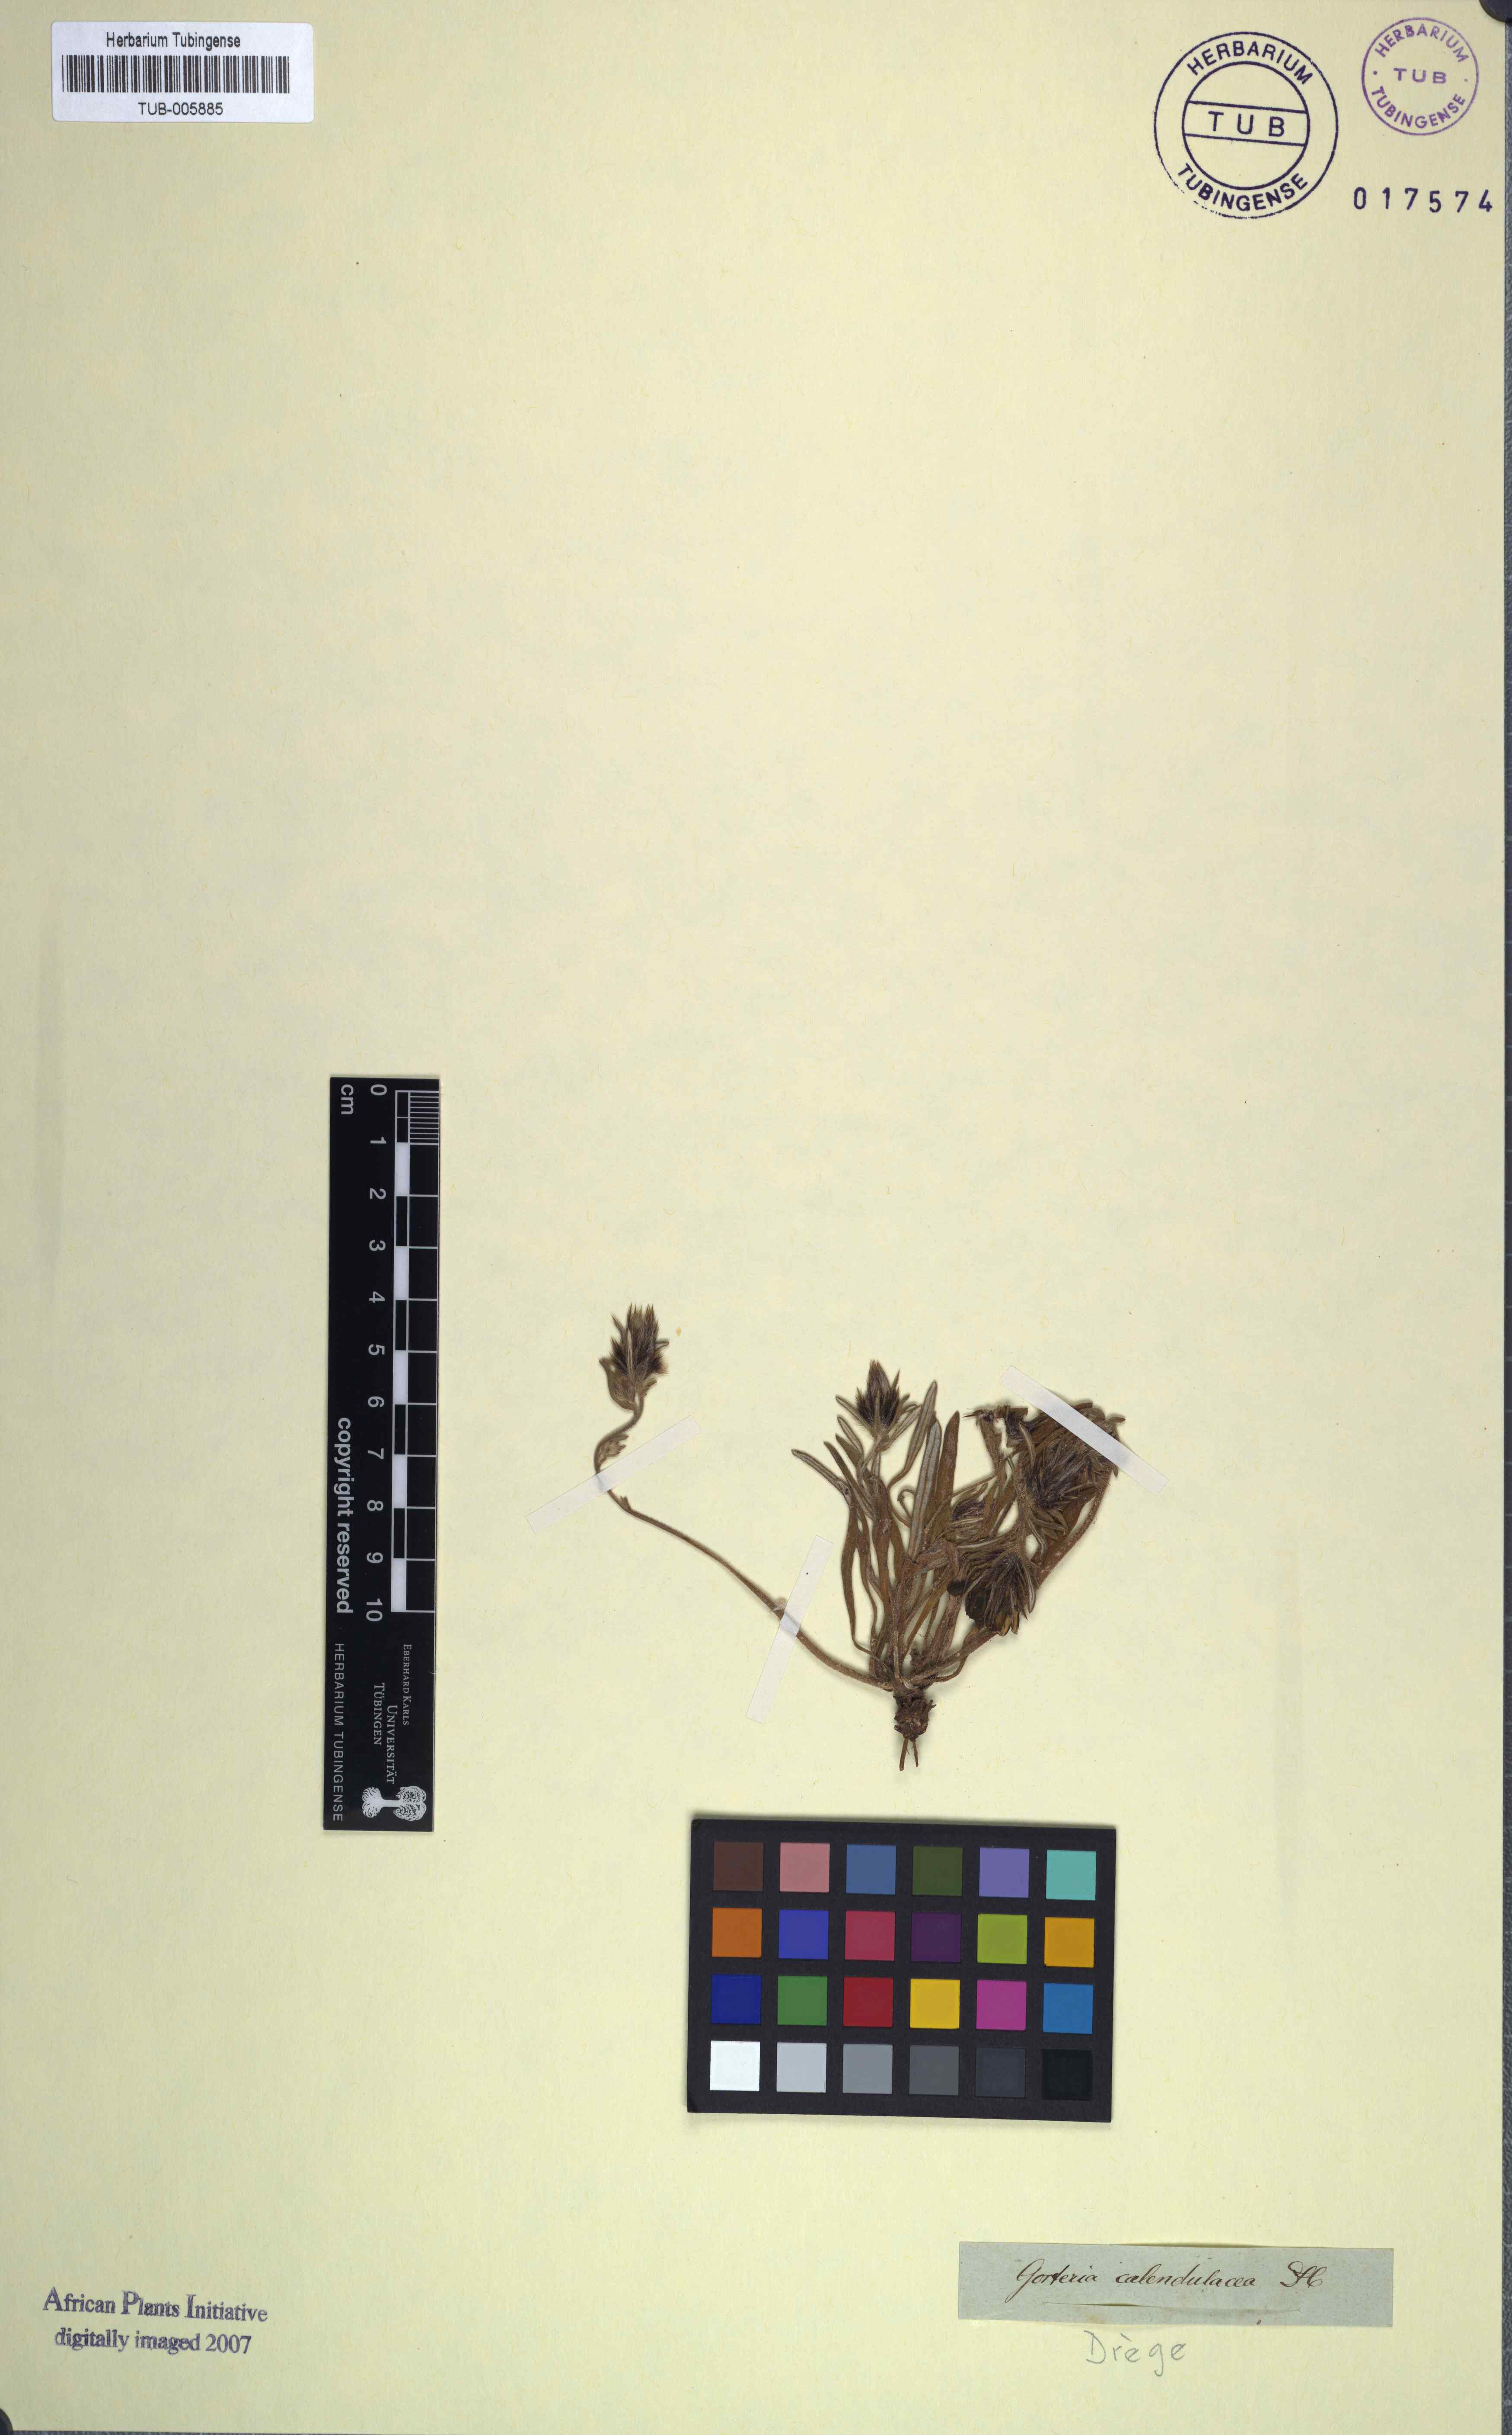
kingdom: Plantae
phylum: Tracheophyta
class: Magnoliopsida
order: Asterales
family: Asteraceae
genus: Gorteria
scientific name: Gorteria diffusa
